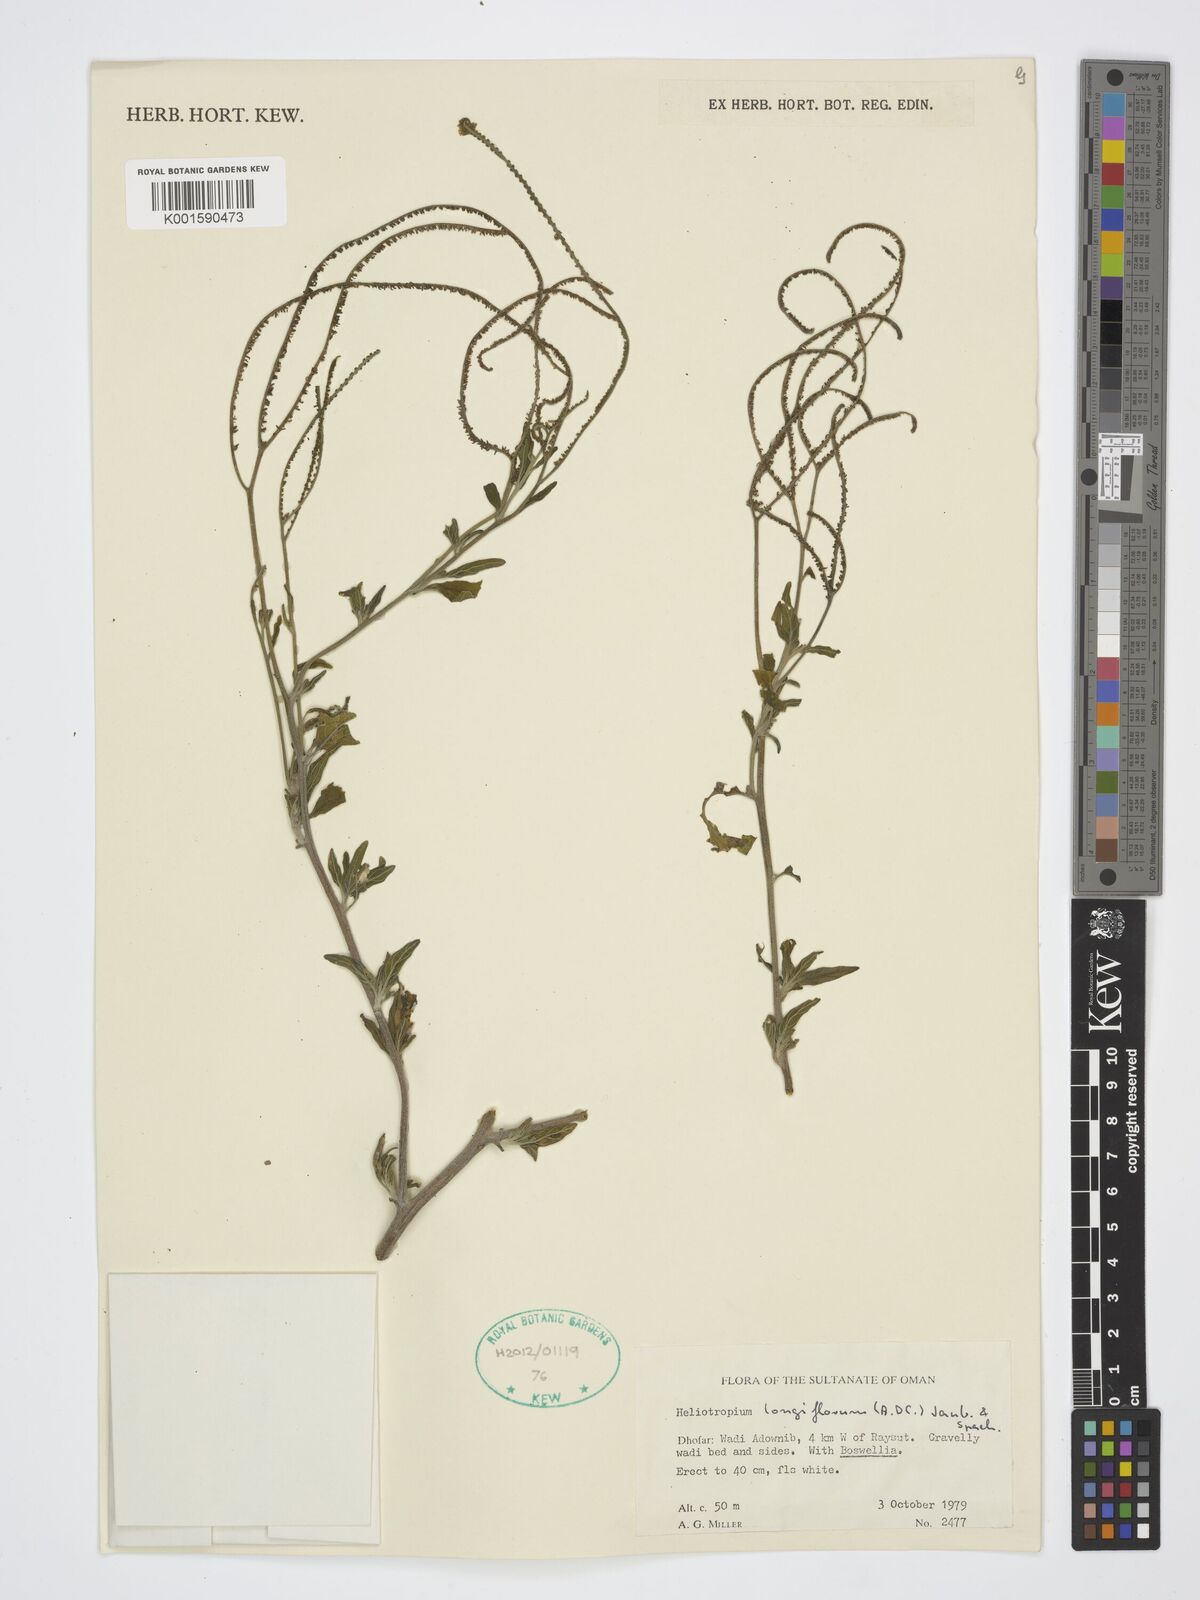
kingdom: Plantae
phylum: Tracheophyta
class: Magnoliopsida
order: Boraginales
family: Heliotropiaceae
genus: Heliotropium
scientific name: Heliotropium longiflorum
